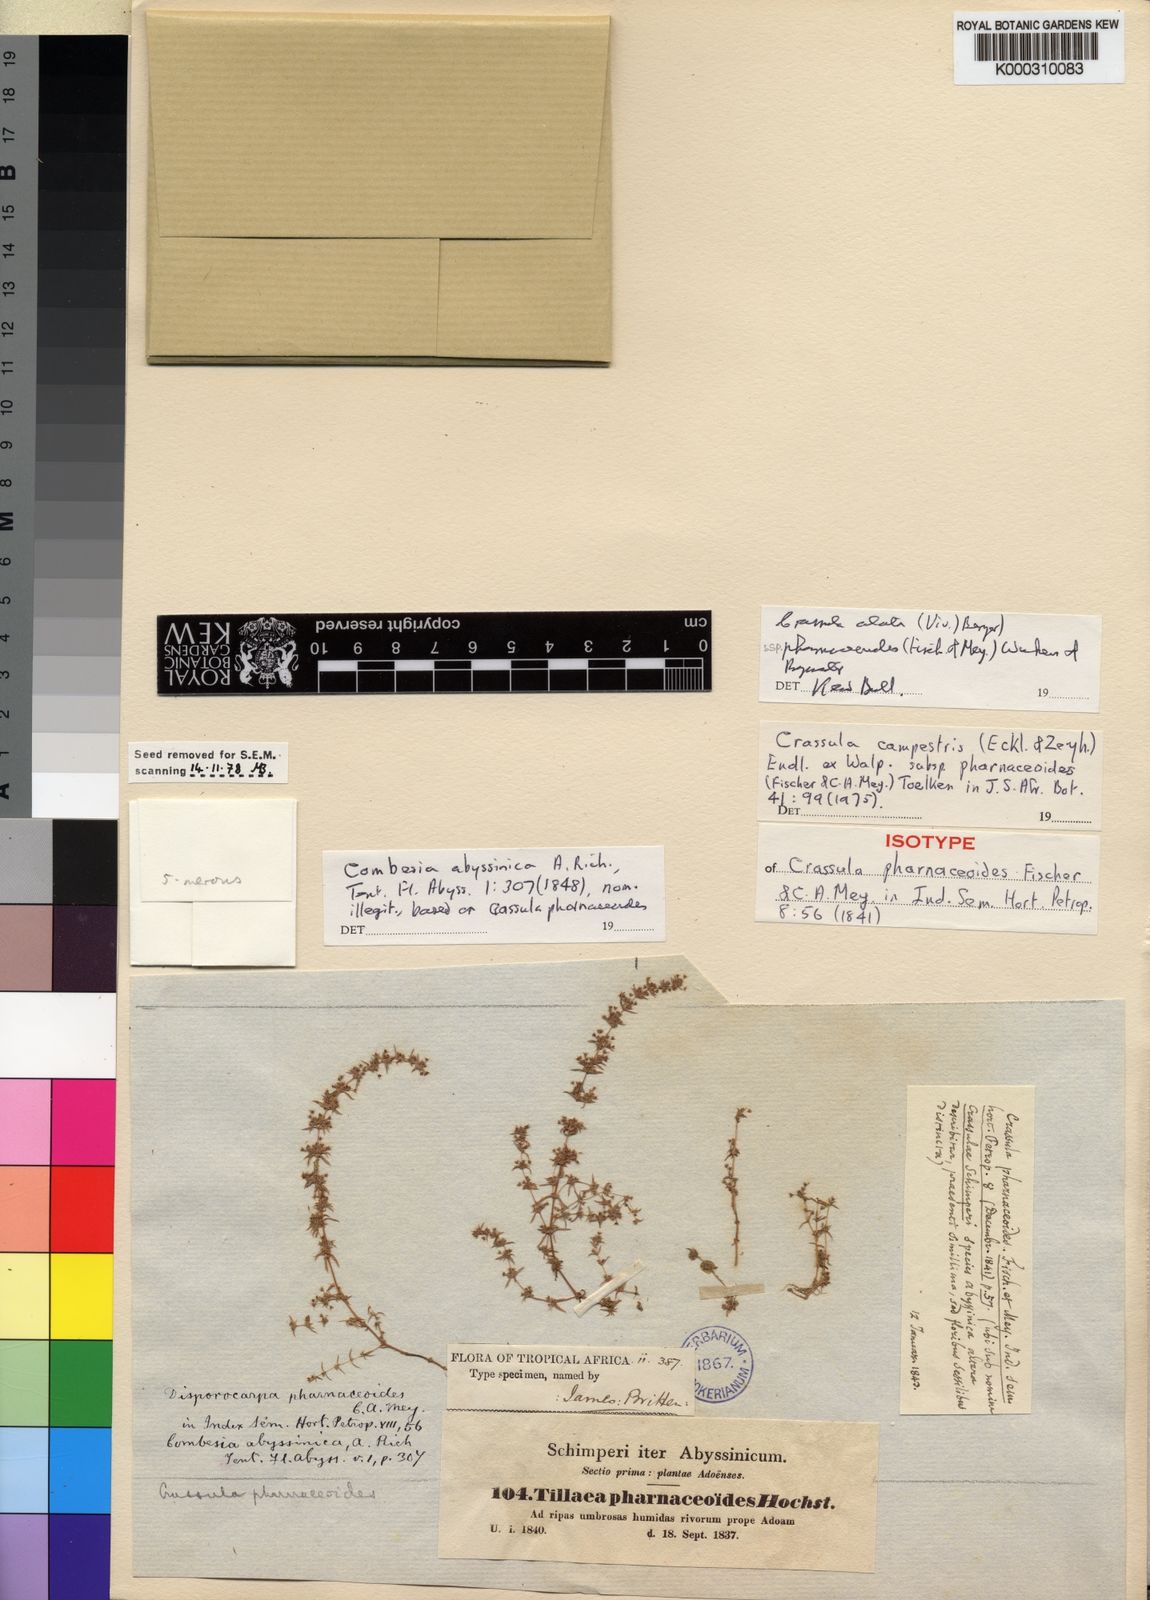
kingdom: Plantae
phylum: Tracheophyta
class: Magnoliopsida
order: Saxifragales
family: Crassulaceae
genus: Crassula
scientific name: Crassula alata
